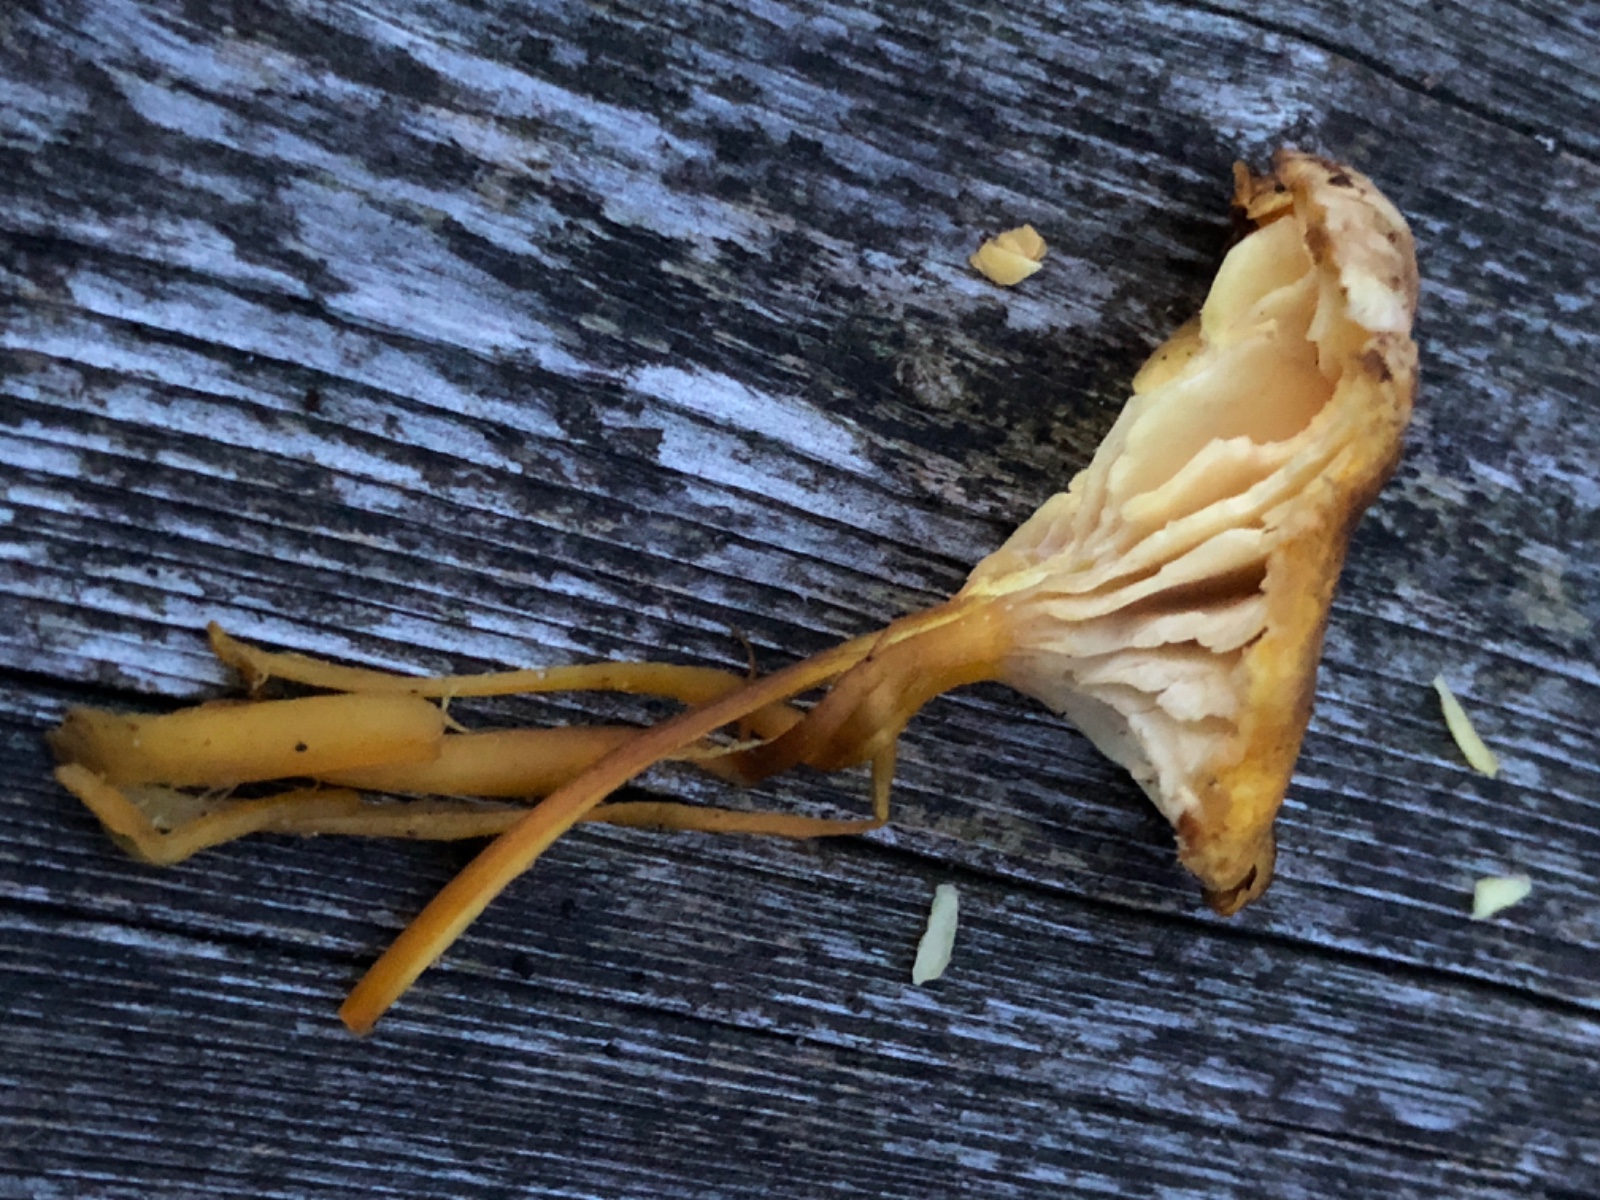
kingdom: Fungi
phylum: Basidiomycota
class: Agaricomycetes
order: Agaricales
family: Hygrophoraceae
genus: Hygrocybe
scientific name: Hygrocybe turunda
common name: sortskællet vokshat
